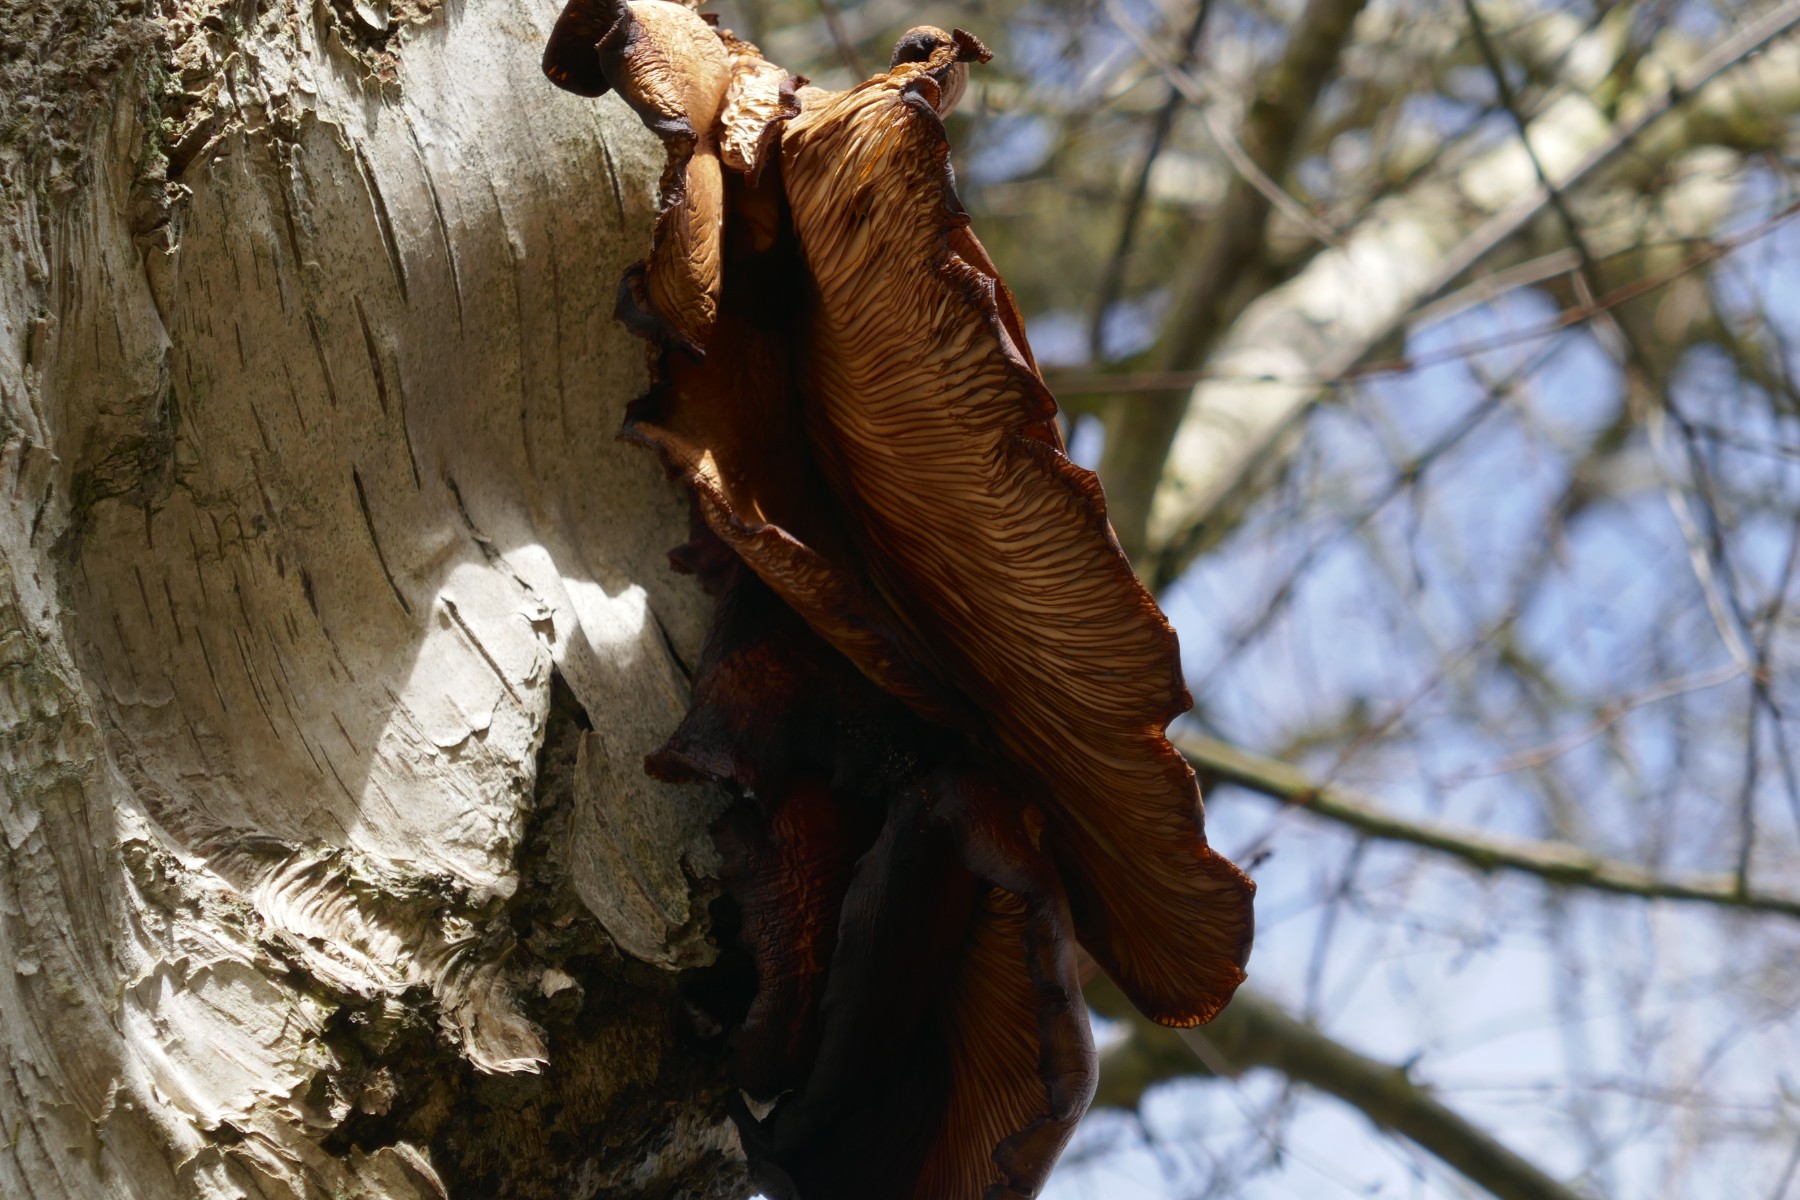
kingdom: Fungi
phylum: Basidiomycota
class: Agaricomycetes
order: Agaricales
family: Pleurotaceae
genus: Pleurotus
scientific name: Pleurotus ostreatus
